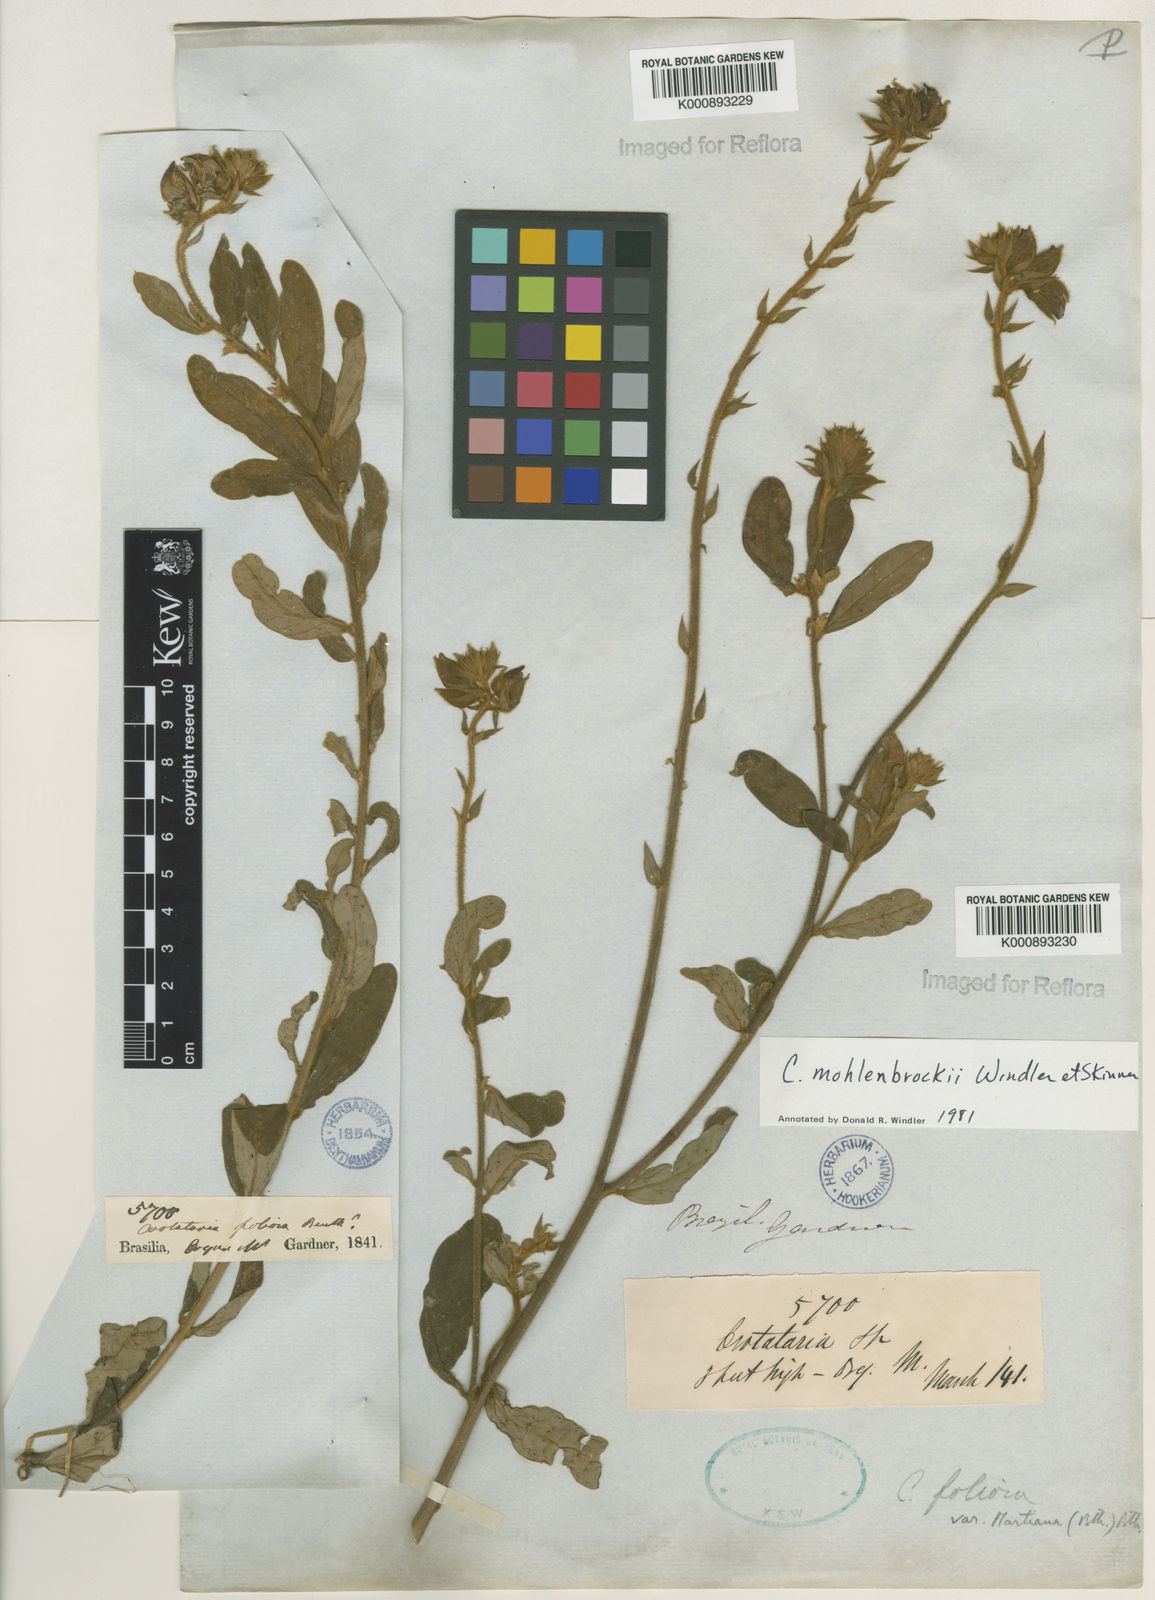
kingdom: Plantae
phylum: Tracheophyta
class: Magnoliopsida
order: Fabales
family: Fabaceae
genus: Crotalaria
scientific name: Crotalaria martiana
